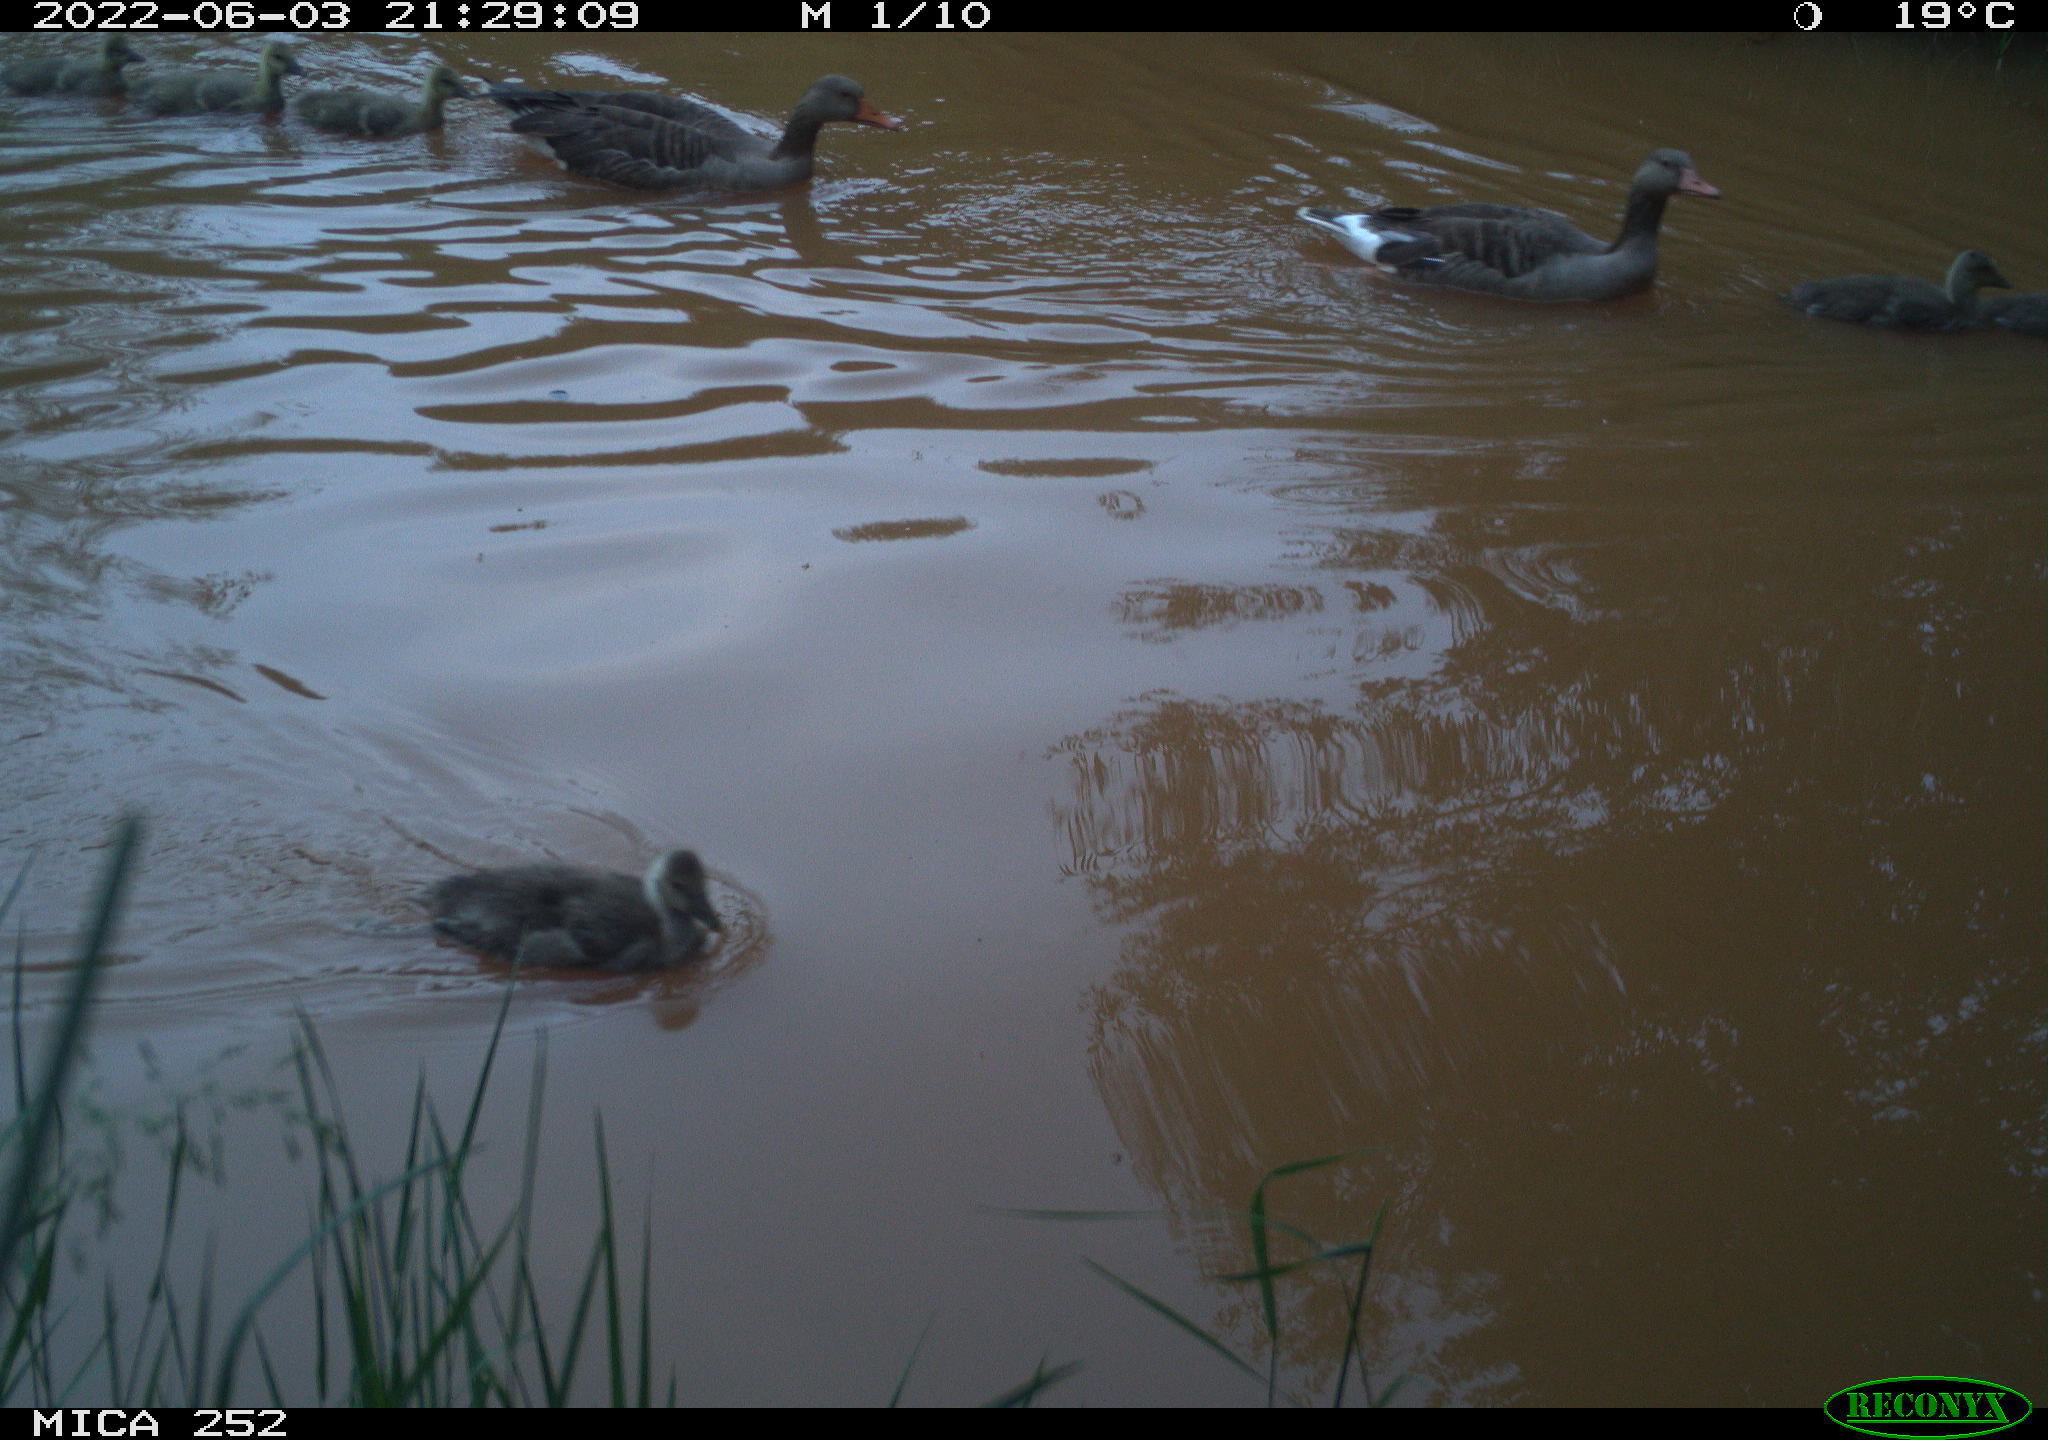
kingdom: Animalia
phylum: Chordata
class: Aves
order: Anseriformes
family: Anatidae
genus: Anser
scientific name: Anser anser
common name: Greylag goose
